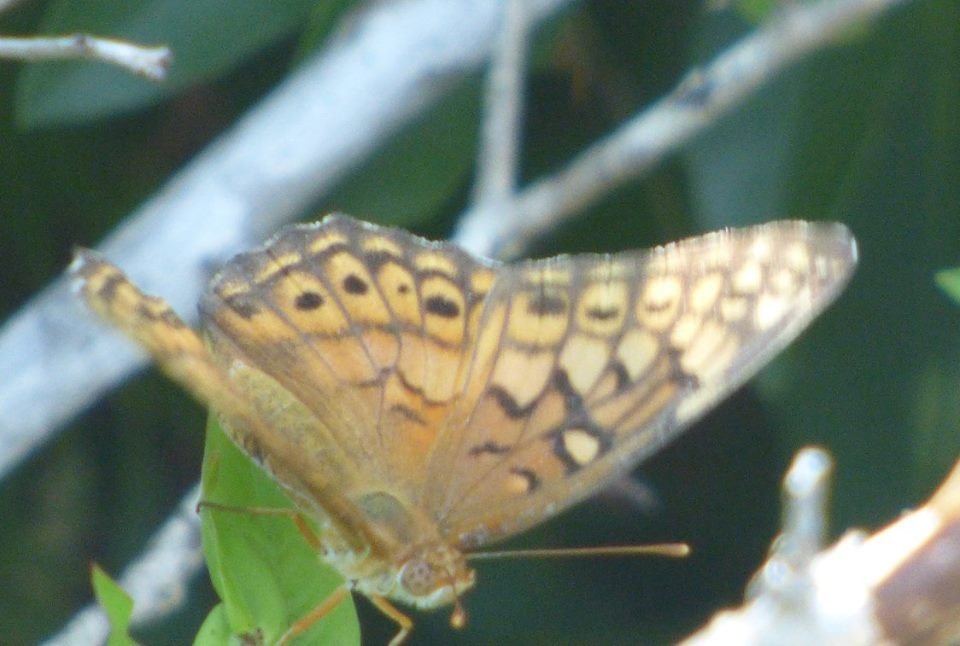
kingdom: Animalia
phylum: Arthropoda
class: Insecta
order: Lepidoptera
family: Nymphalidae
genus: Euptoieta
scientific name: Euptoieta claudia
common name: Variegated Fritillary
